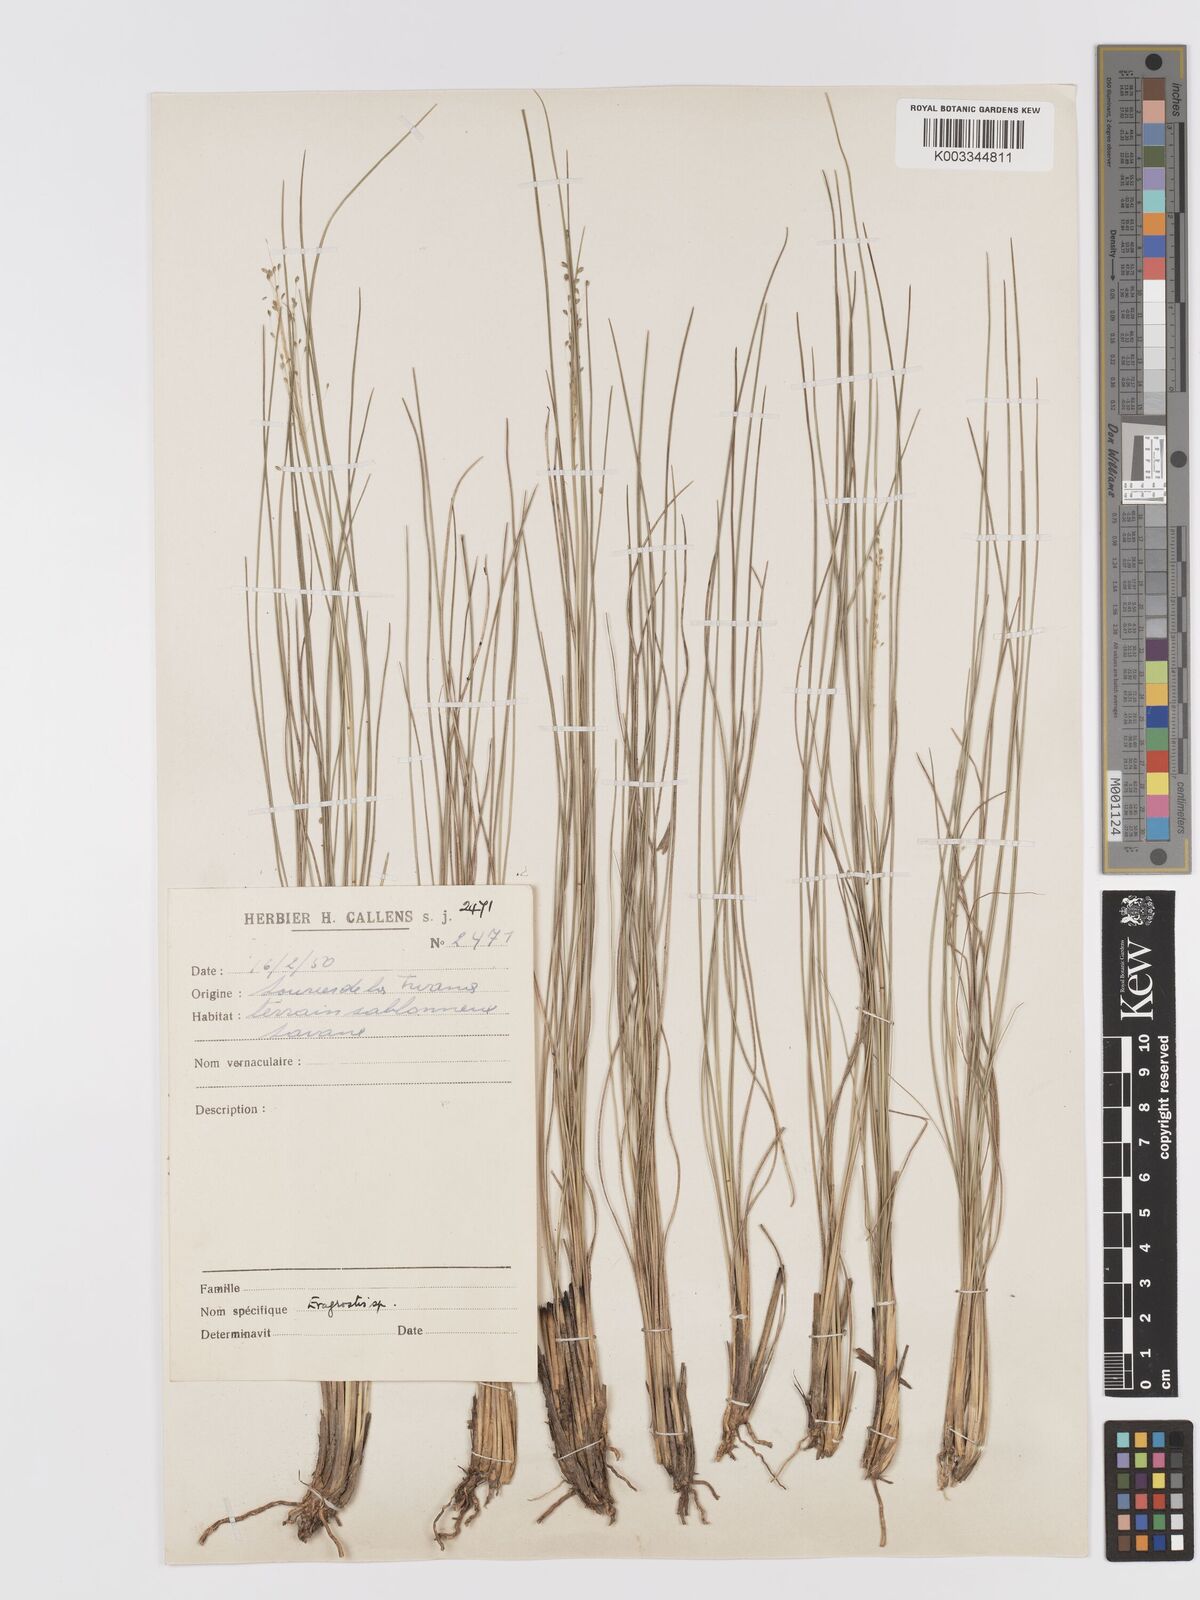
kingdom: Plantae
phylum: Tracheophyta
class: Liliopsida
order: Poales
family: Poaceae
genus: Eragrostis
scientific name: Eragrostis plurigluma
